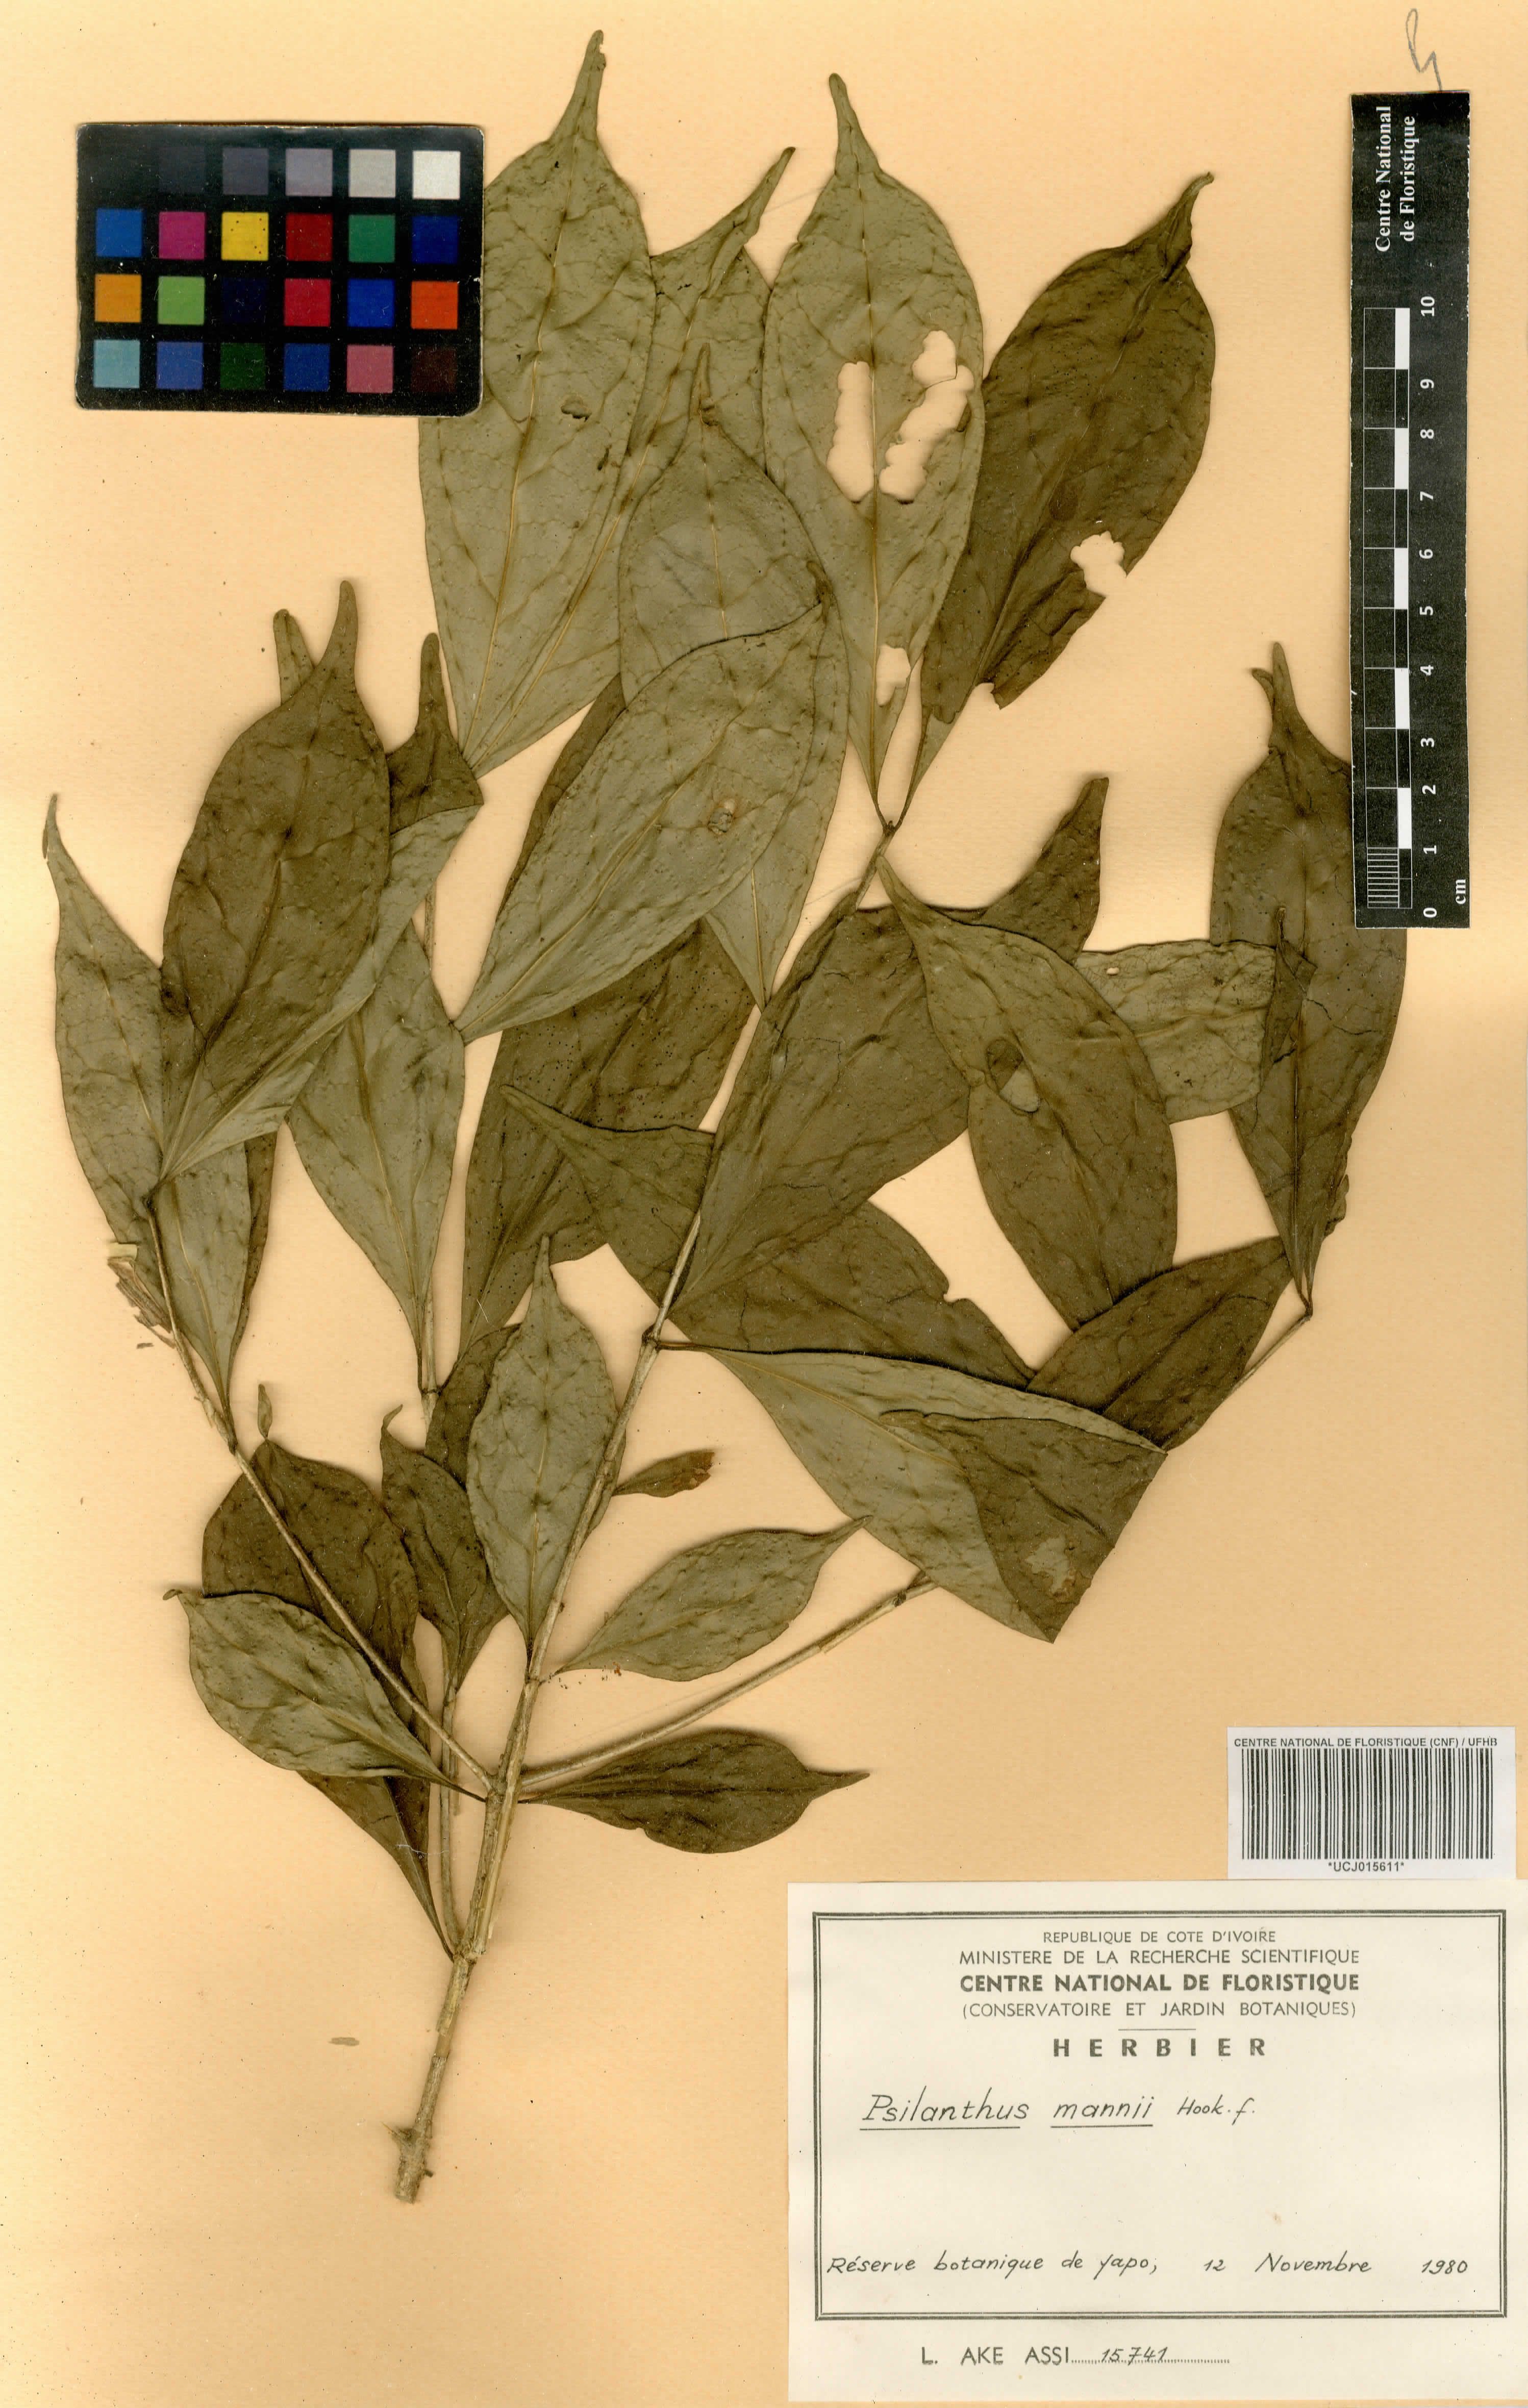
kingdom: Plantae
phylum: Tracheophyta
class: Magnoliopsida
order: Gentianales
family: Rubiaceae
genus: Coffea
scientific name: Coffea mannii
